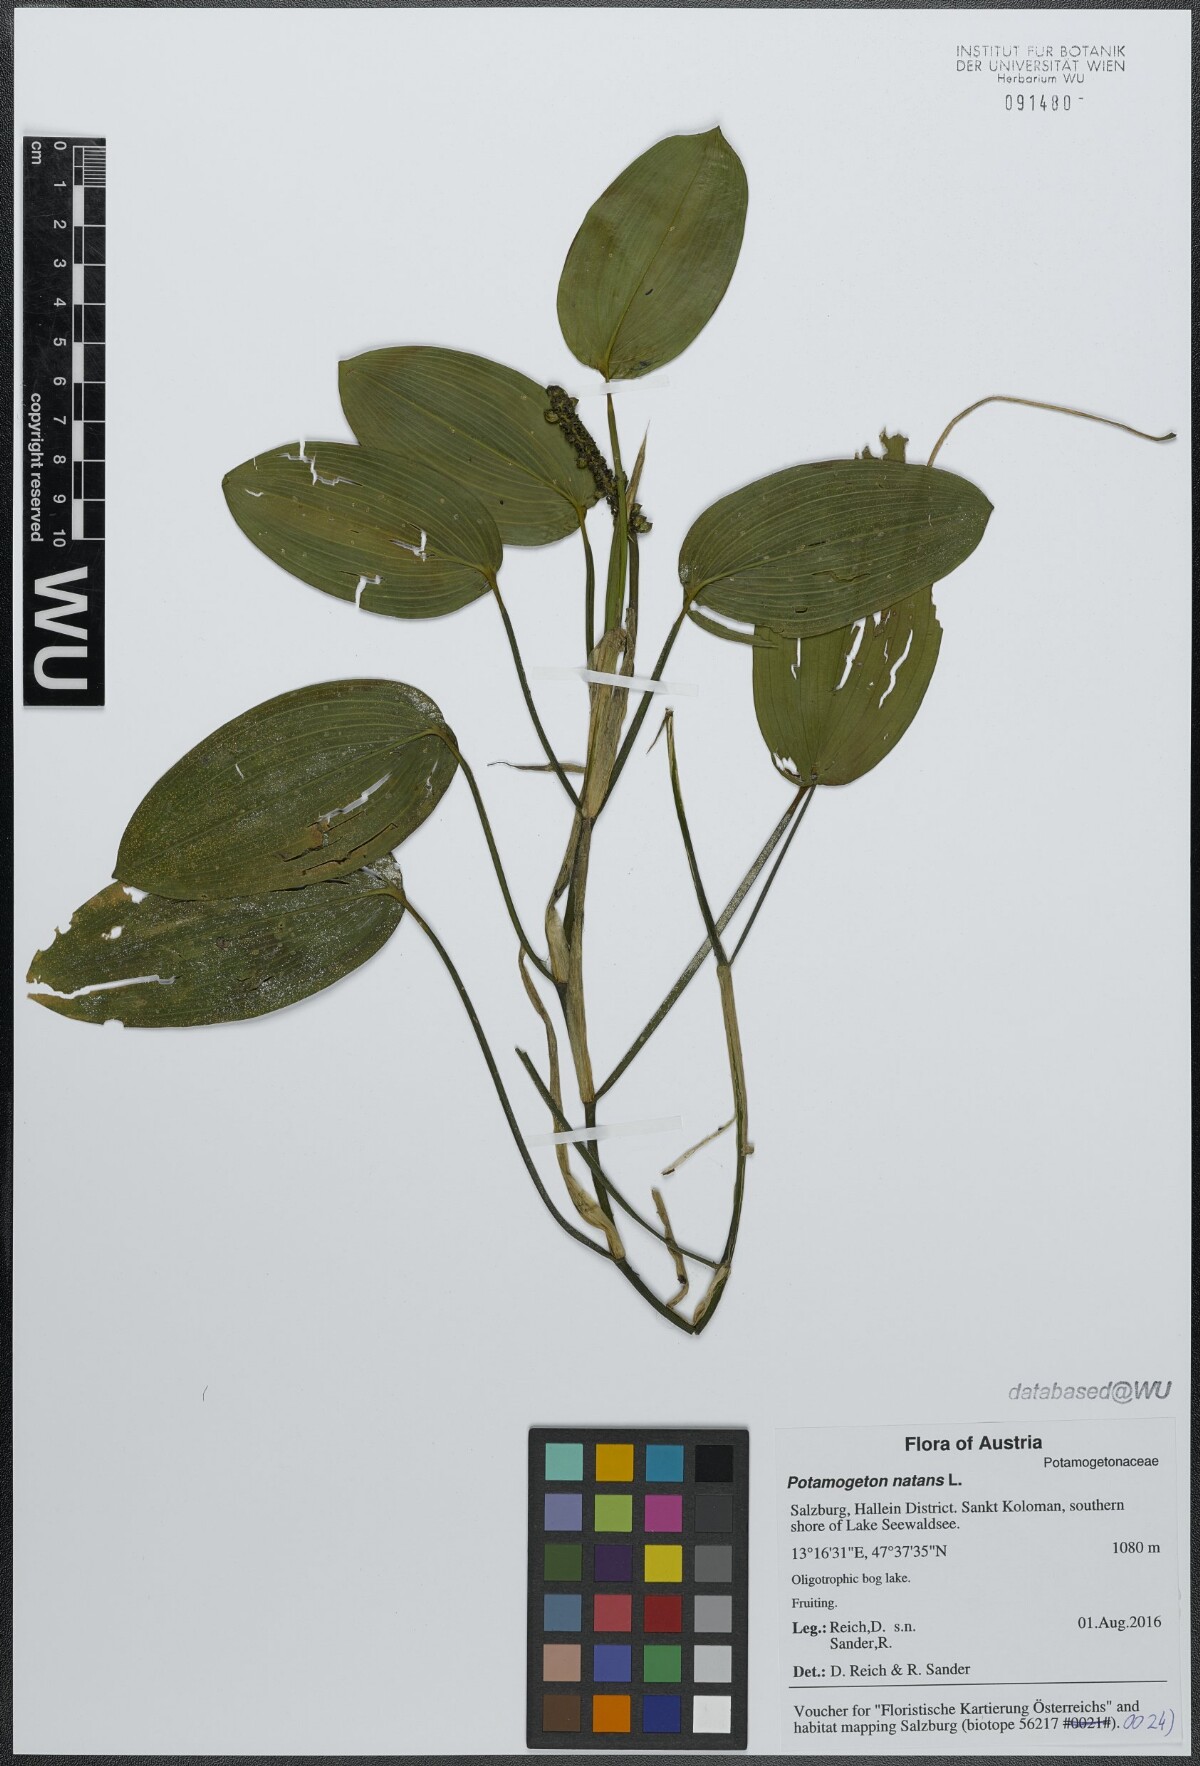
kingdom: Plantae
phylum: Tracheophyta
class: Liliopsida
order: Alismatales
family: Potamogetonaceae
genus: Potamogeton
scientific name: Potamogeton natans
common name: Broad-leaved pondweed
